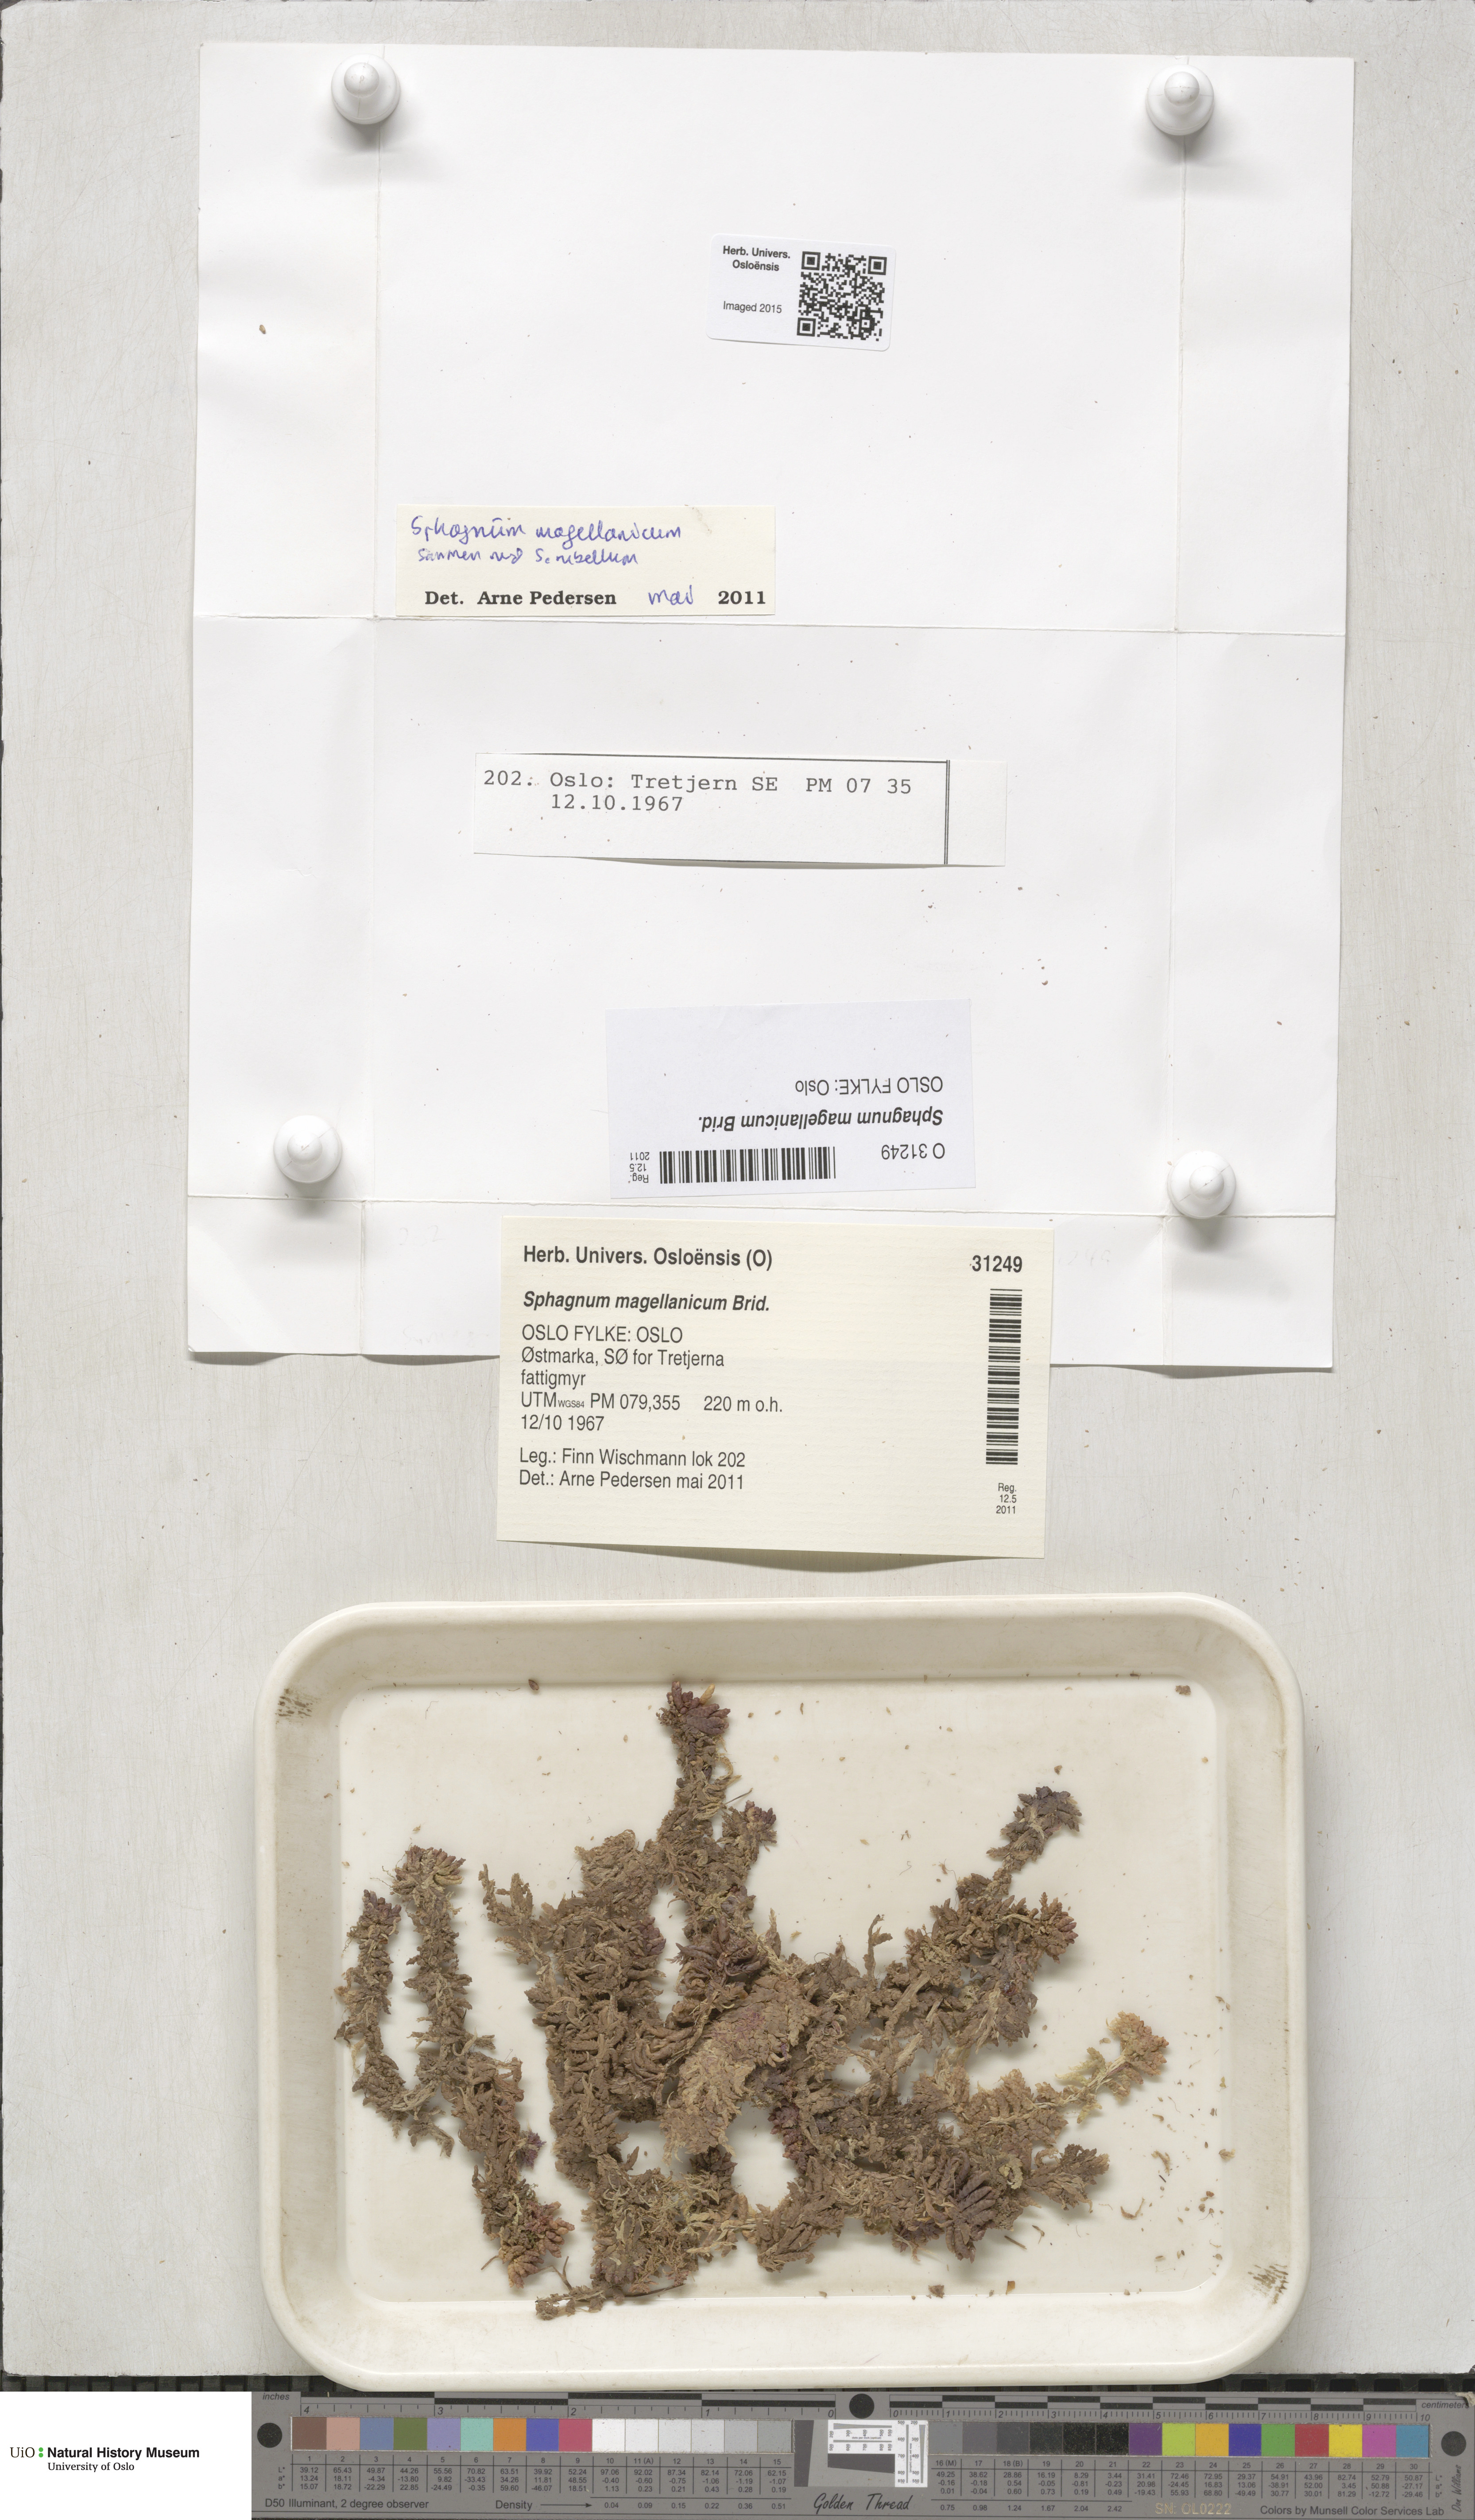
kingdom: Plantae
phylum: Bryophyta
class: Sphagnopsida
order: Sphagnales
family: Sphagnaceae
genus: Sphagnum
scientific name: Sphagnum magellanicum
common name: Magellan's peat moss
